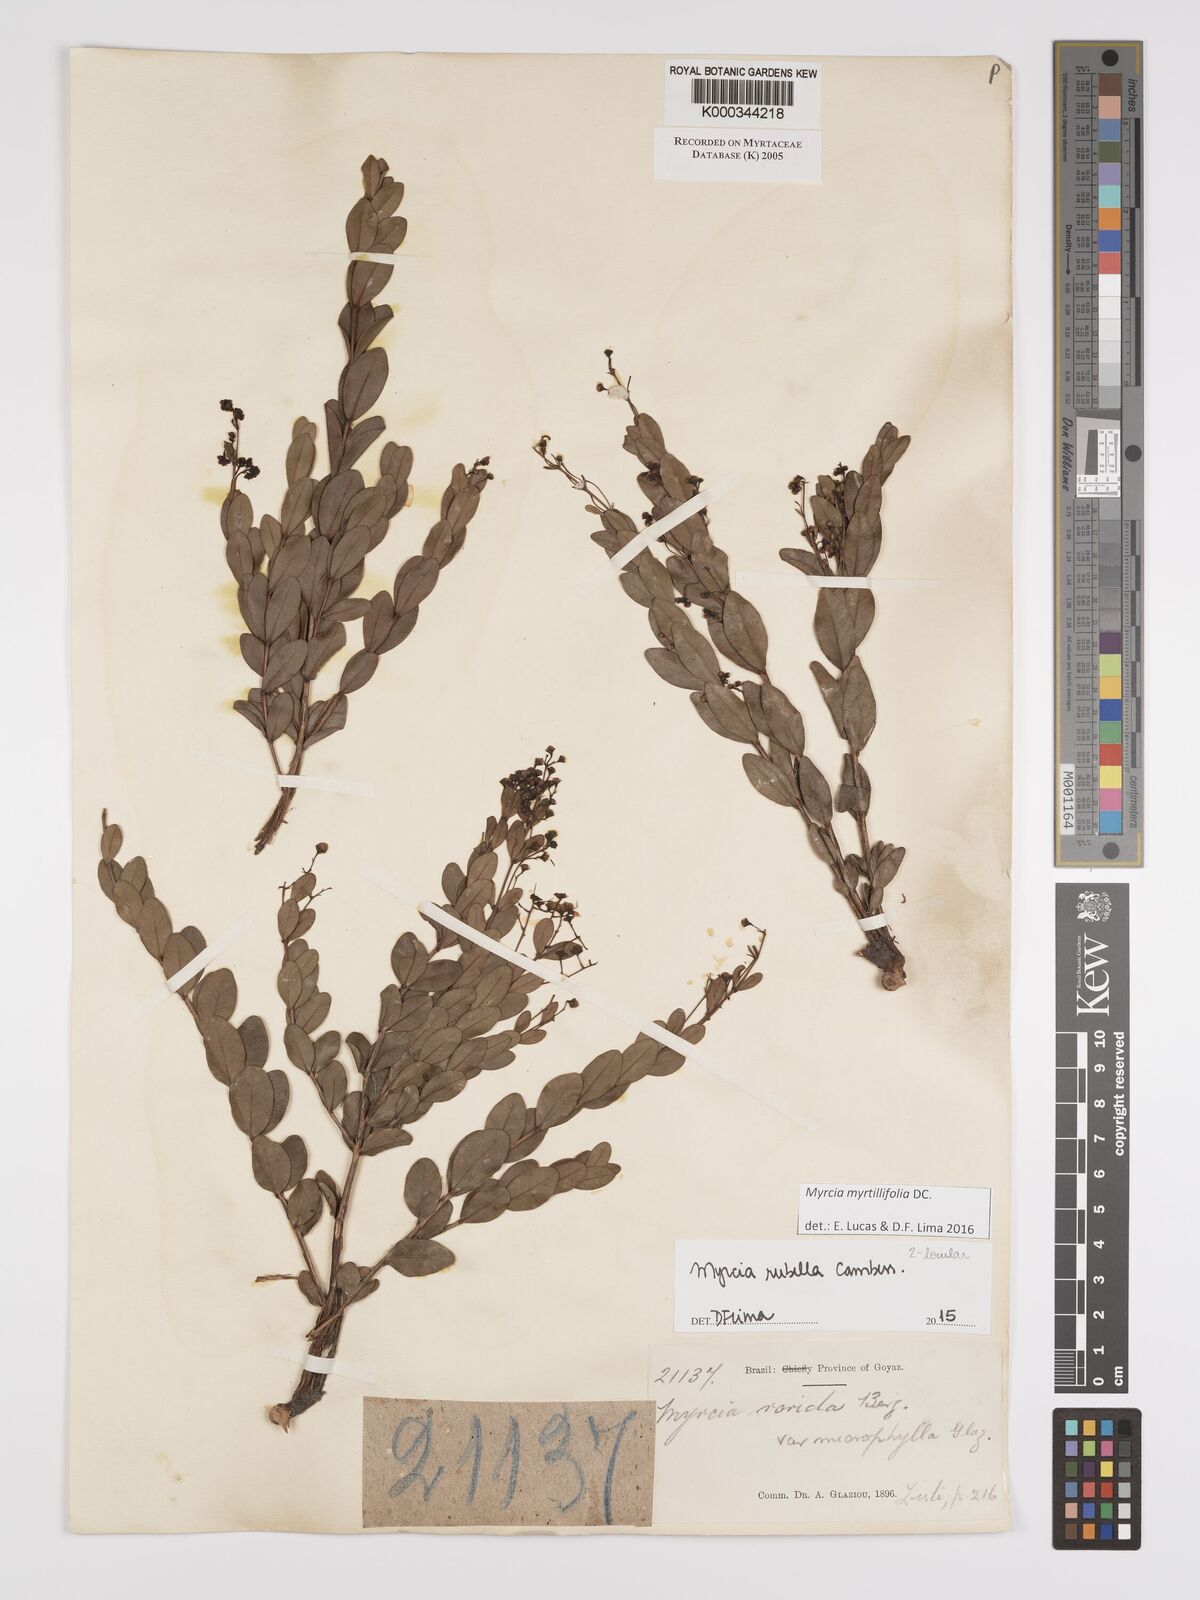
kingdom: Plantae
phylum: Tracheophyta
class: Magnoliopsida
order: Myrtales
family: Myrtaceae
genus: Myrcia
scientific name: Myrcia guianensis
